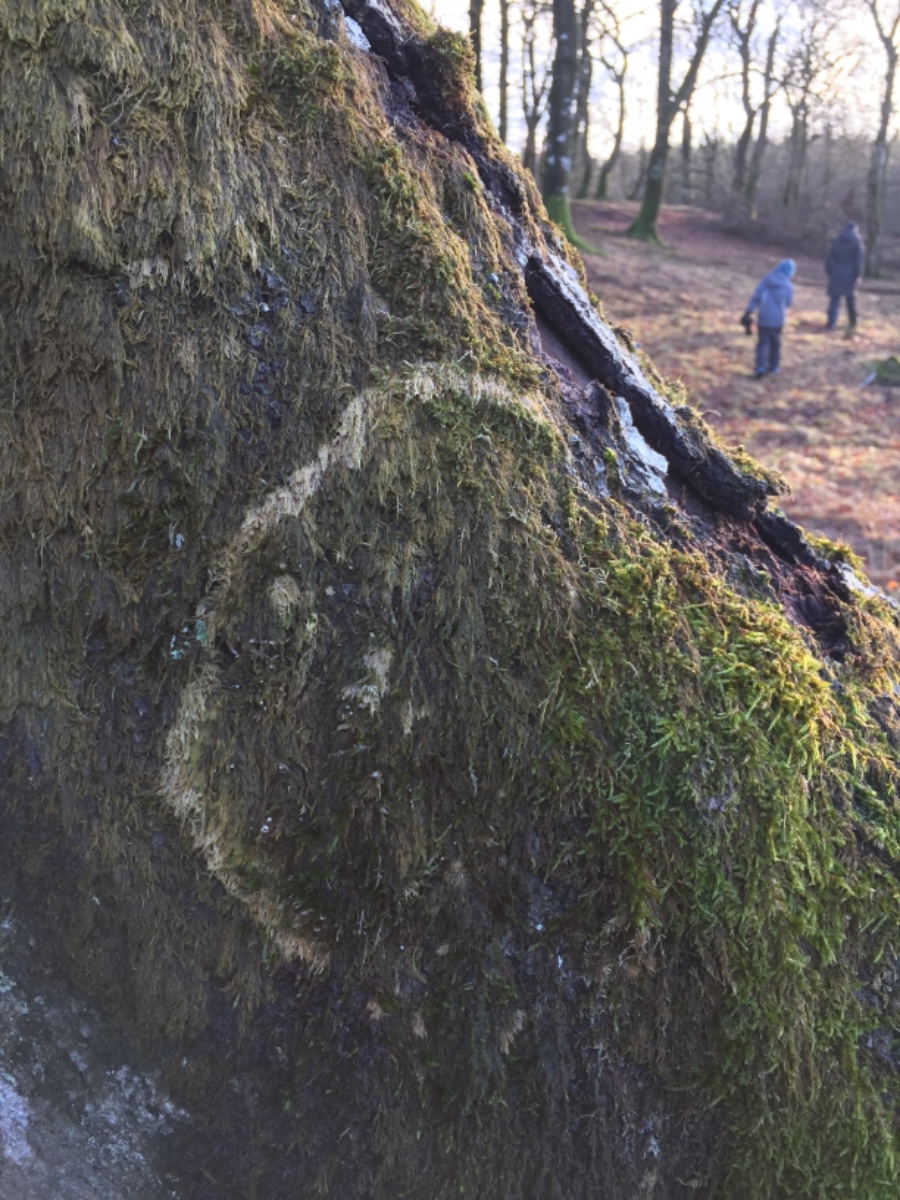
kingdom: Fungi
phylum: Basidiomycota
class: Agaricomycetes
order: Agaricales
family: Chromocyphellaceae
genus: Chromocyphella
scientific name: Chromocyphella muscicola
